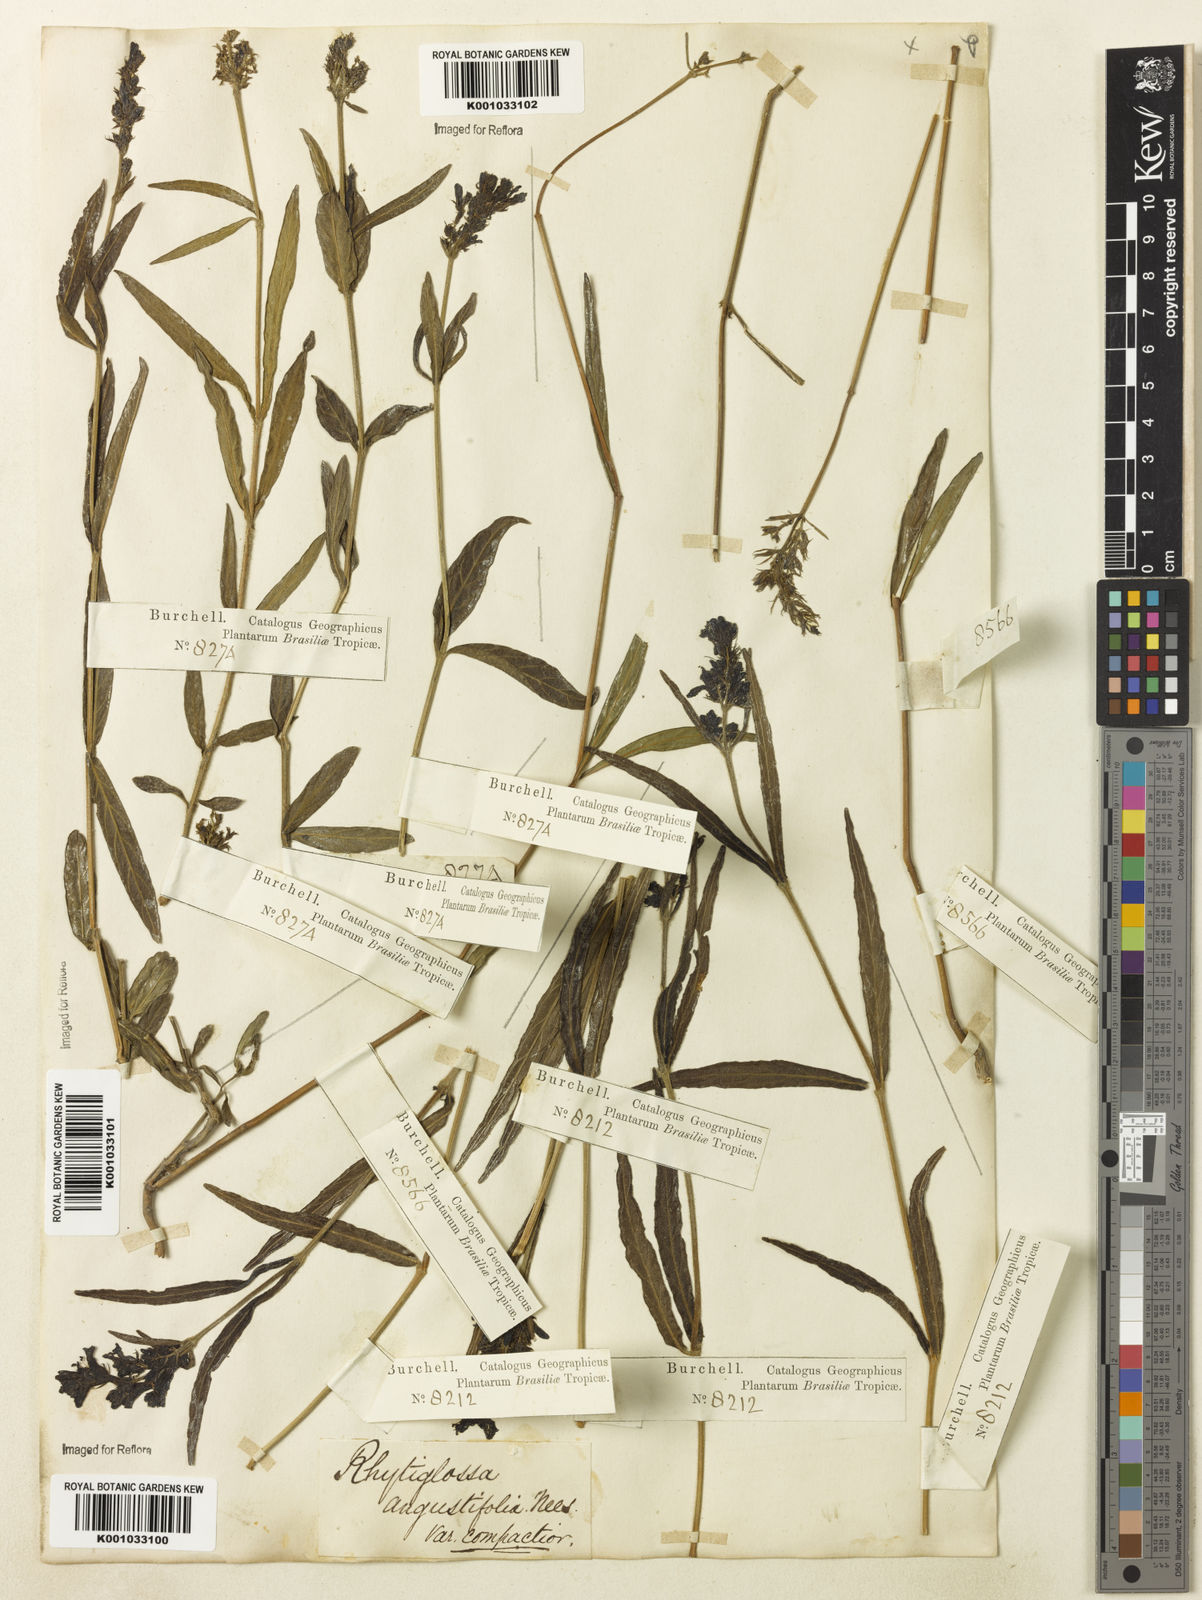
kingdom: Plantae
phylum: Tracheophyta
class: Magnoliopsida
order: Lamiales
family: Acanthaceae
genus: Dianthera
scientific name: Dianthera angustifolia
